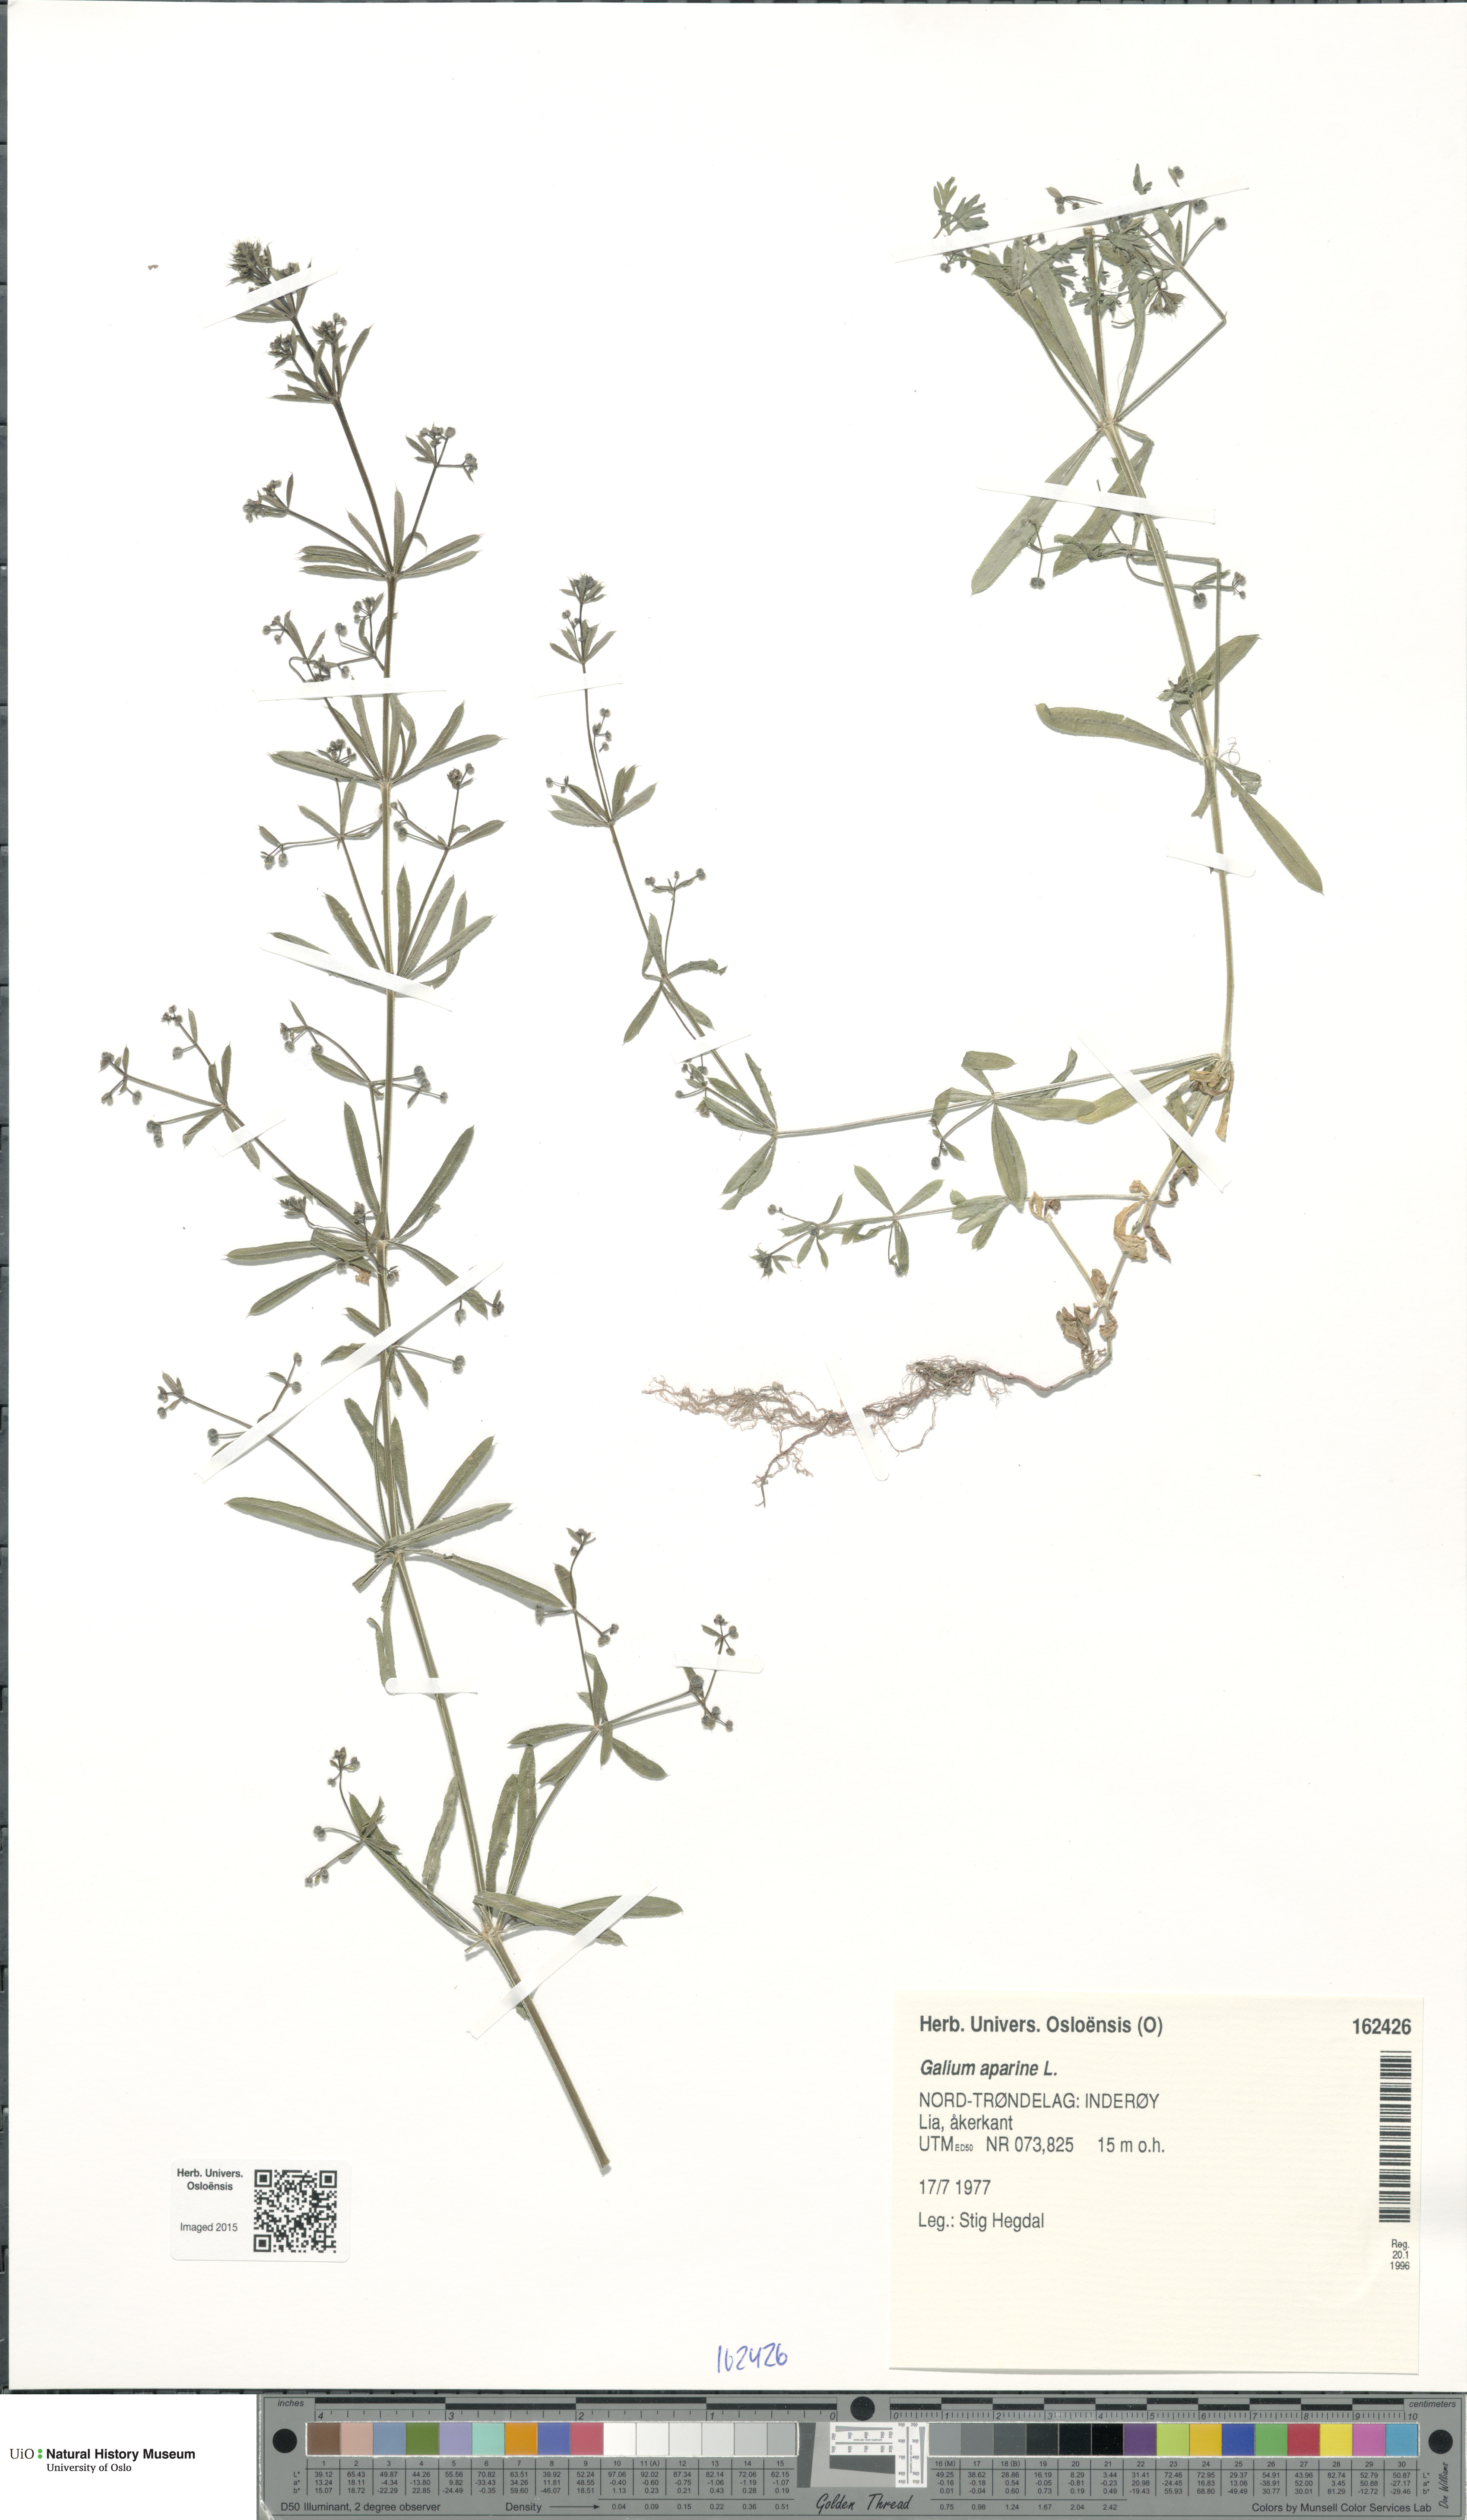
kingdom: Plantae
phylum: Tracheophyta
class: Magnoliopsida
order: Gentianales
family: Rubiaceae
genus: Galium
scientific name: Galium aparine
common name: Cleavers
